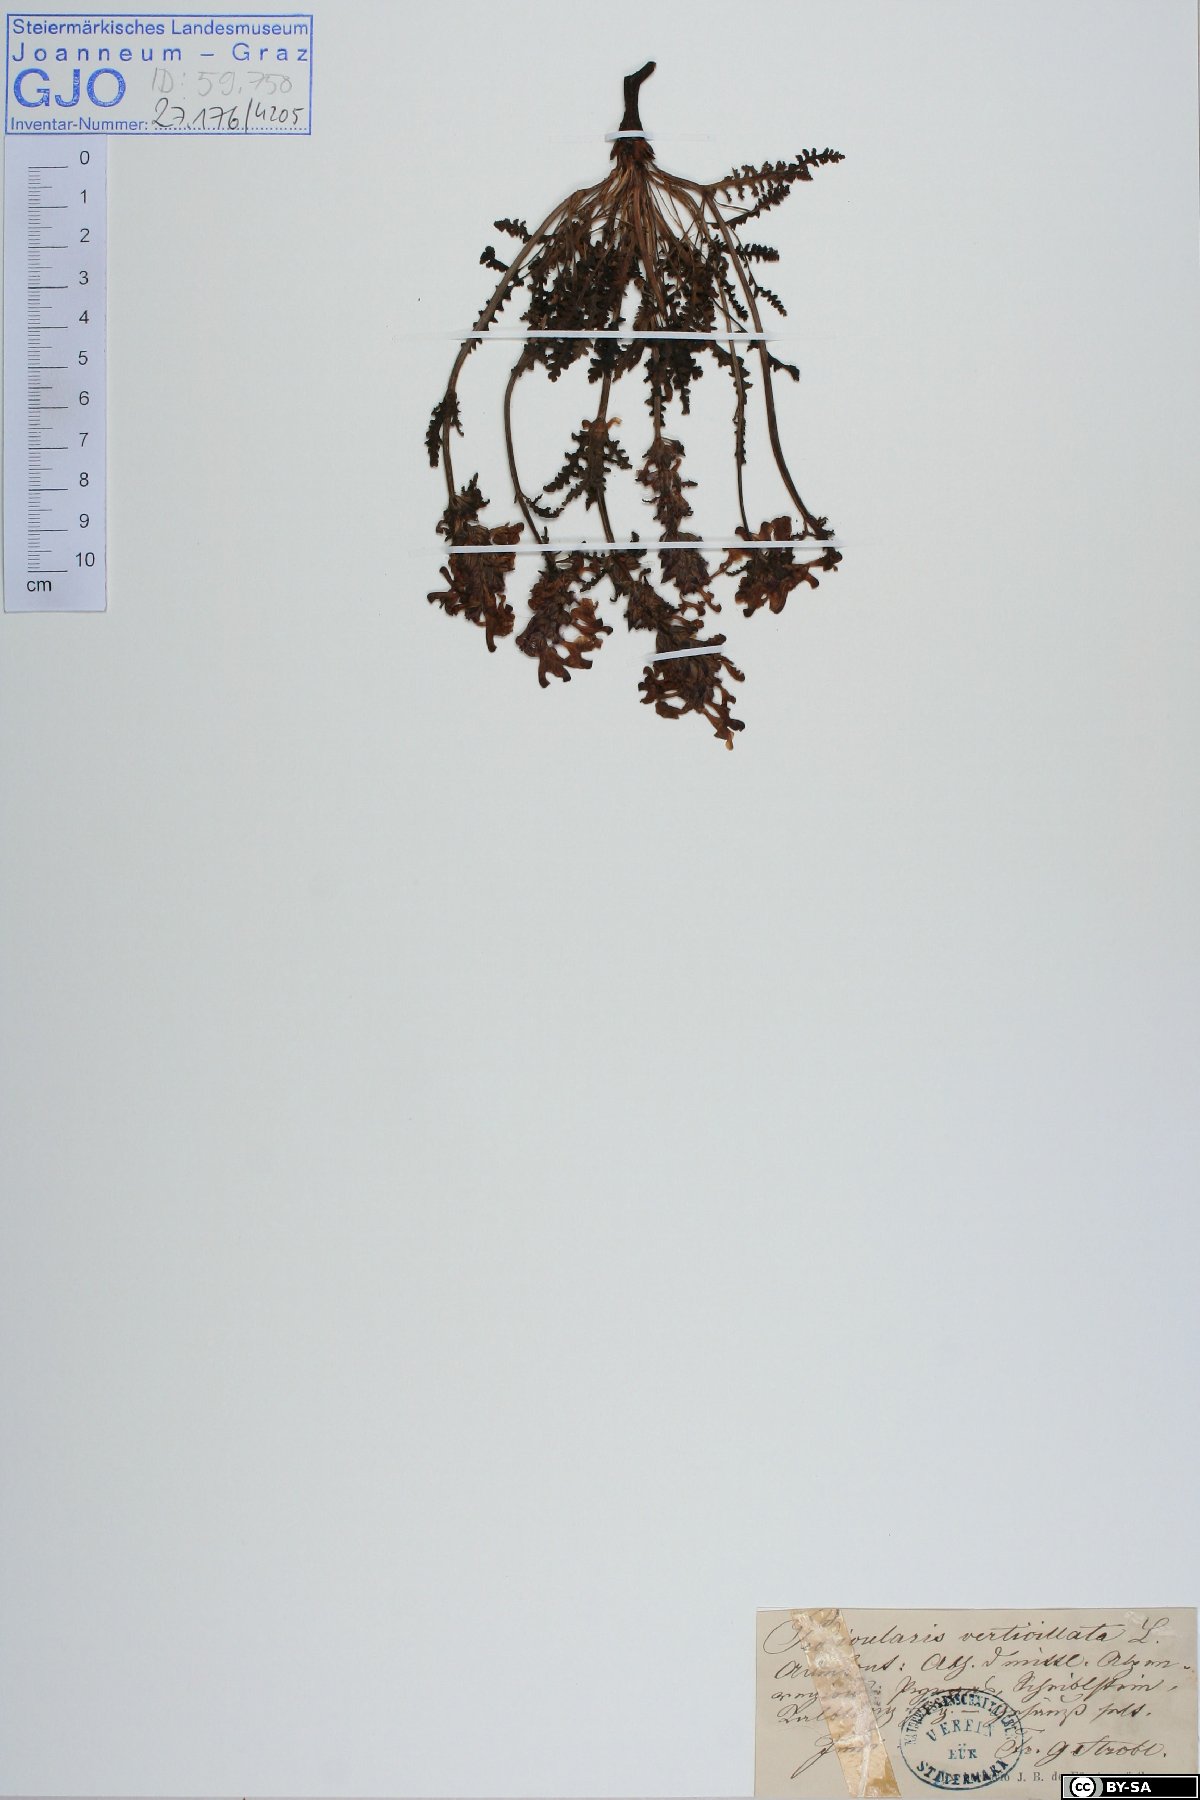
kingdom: Plantae
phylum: Tracheophyta
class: Magnoliopsida
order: Lamiales
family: Orobanchaceae
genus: Pedicularis
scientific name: Pedicularis verticillata
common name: Whorled lousewort
